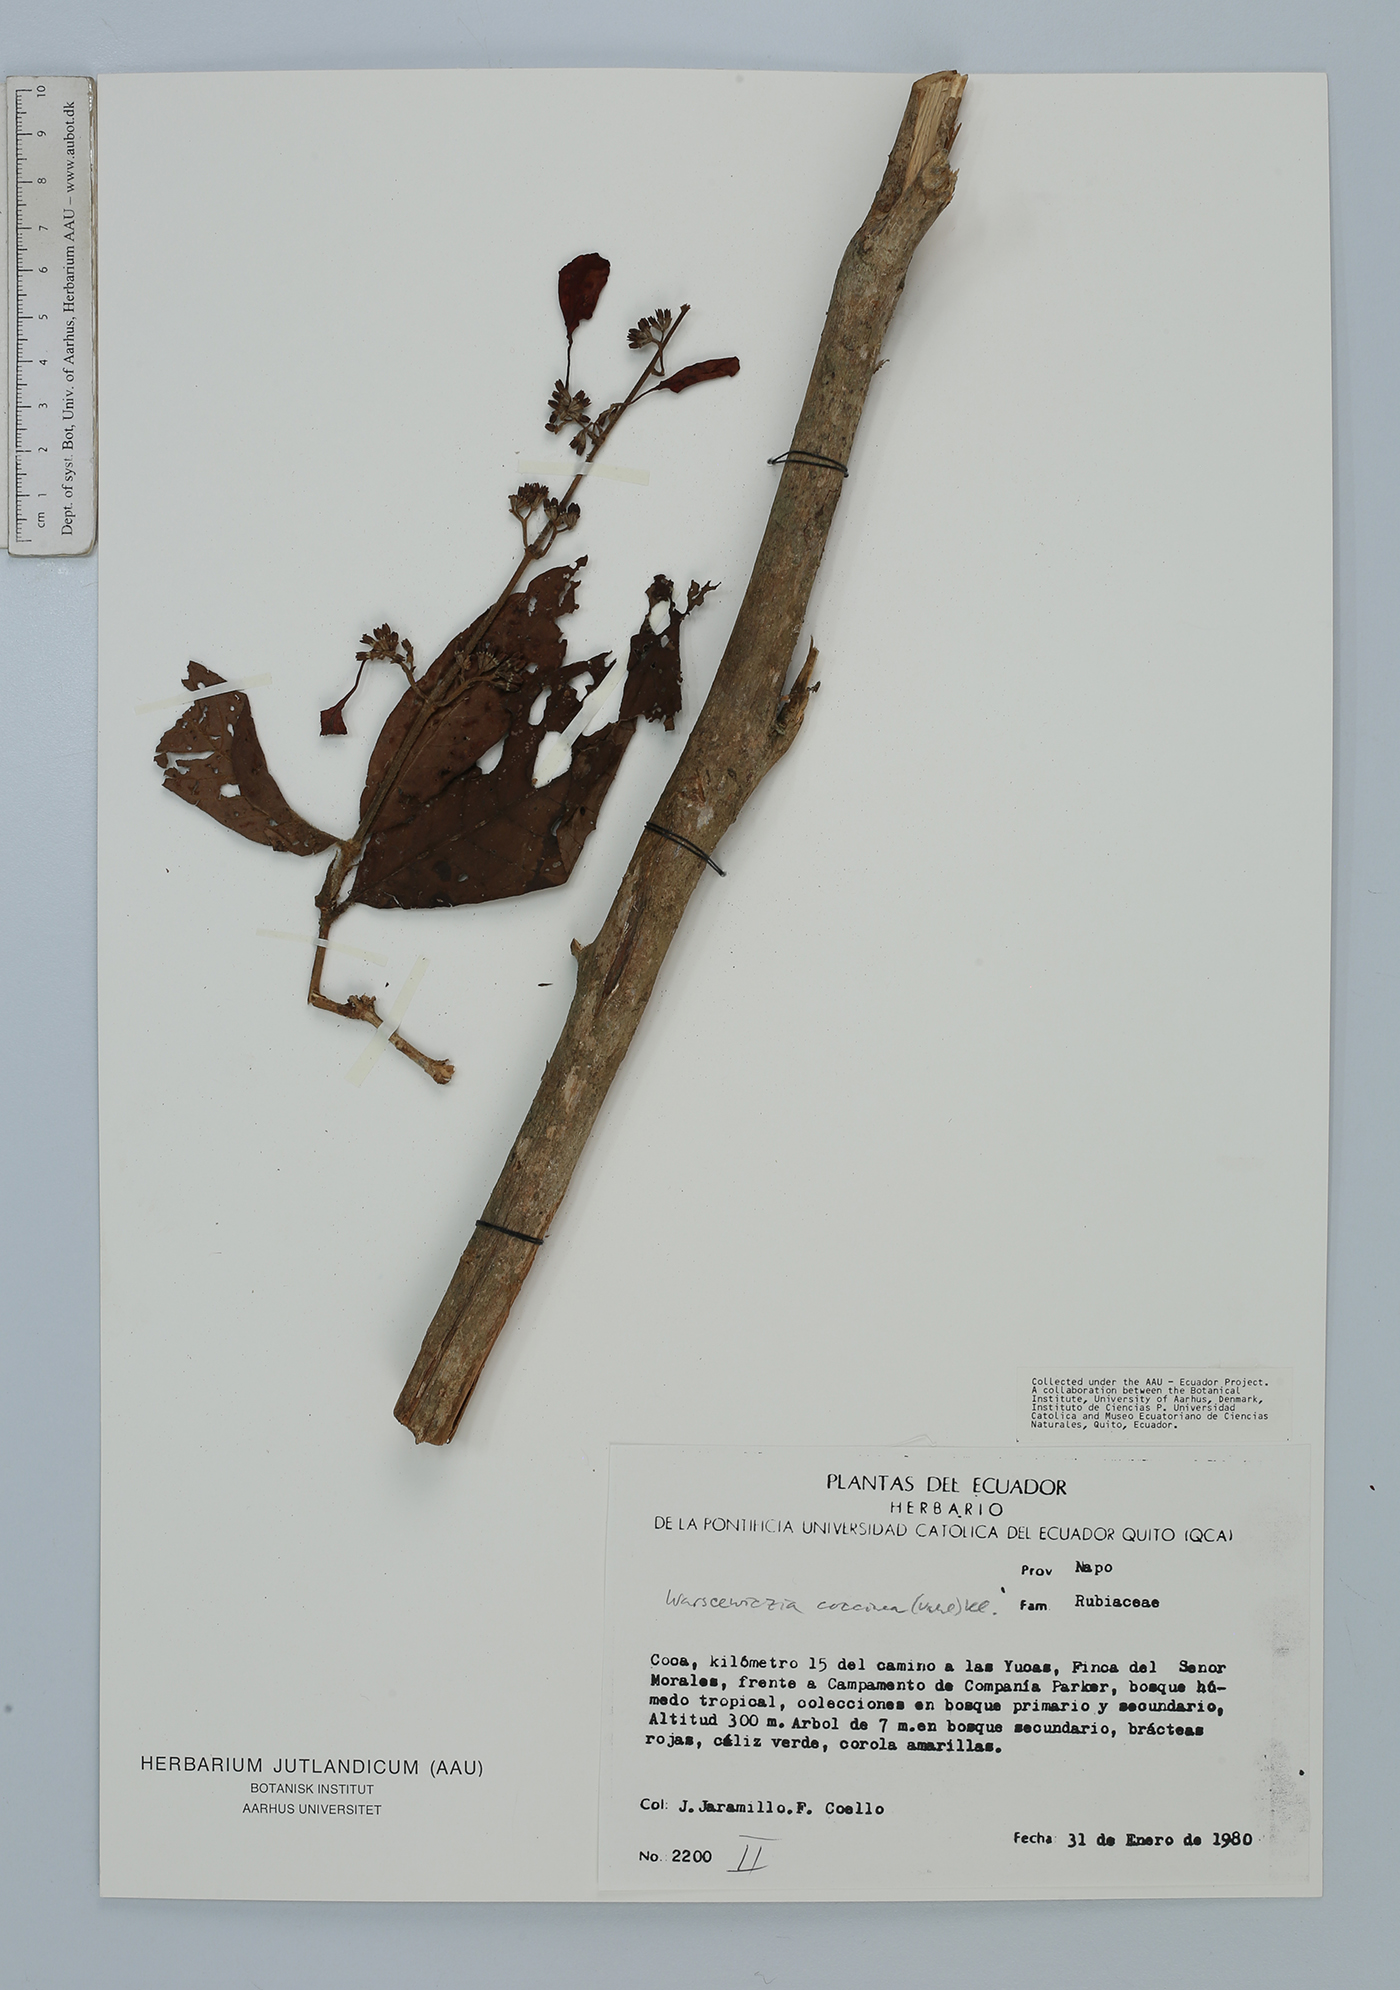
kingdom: Plantae
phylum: Tracheophyta
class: Magnoliopsida
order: Gentianales
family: Rubiaceae
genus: Warszewiczia
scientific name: Warszewiczia coccinea
